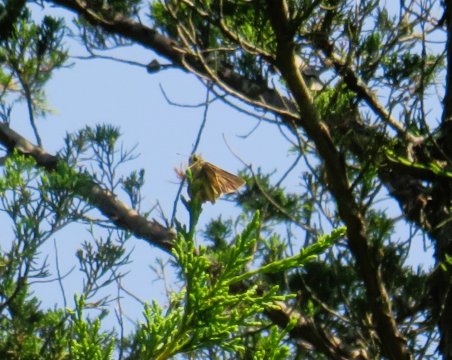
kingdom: Animalia
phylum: Arthropoda
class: Insecta
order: Lepidoptera
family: Hesperiidae
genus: Polites
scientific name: Polites
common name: Long Dash Skipper
